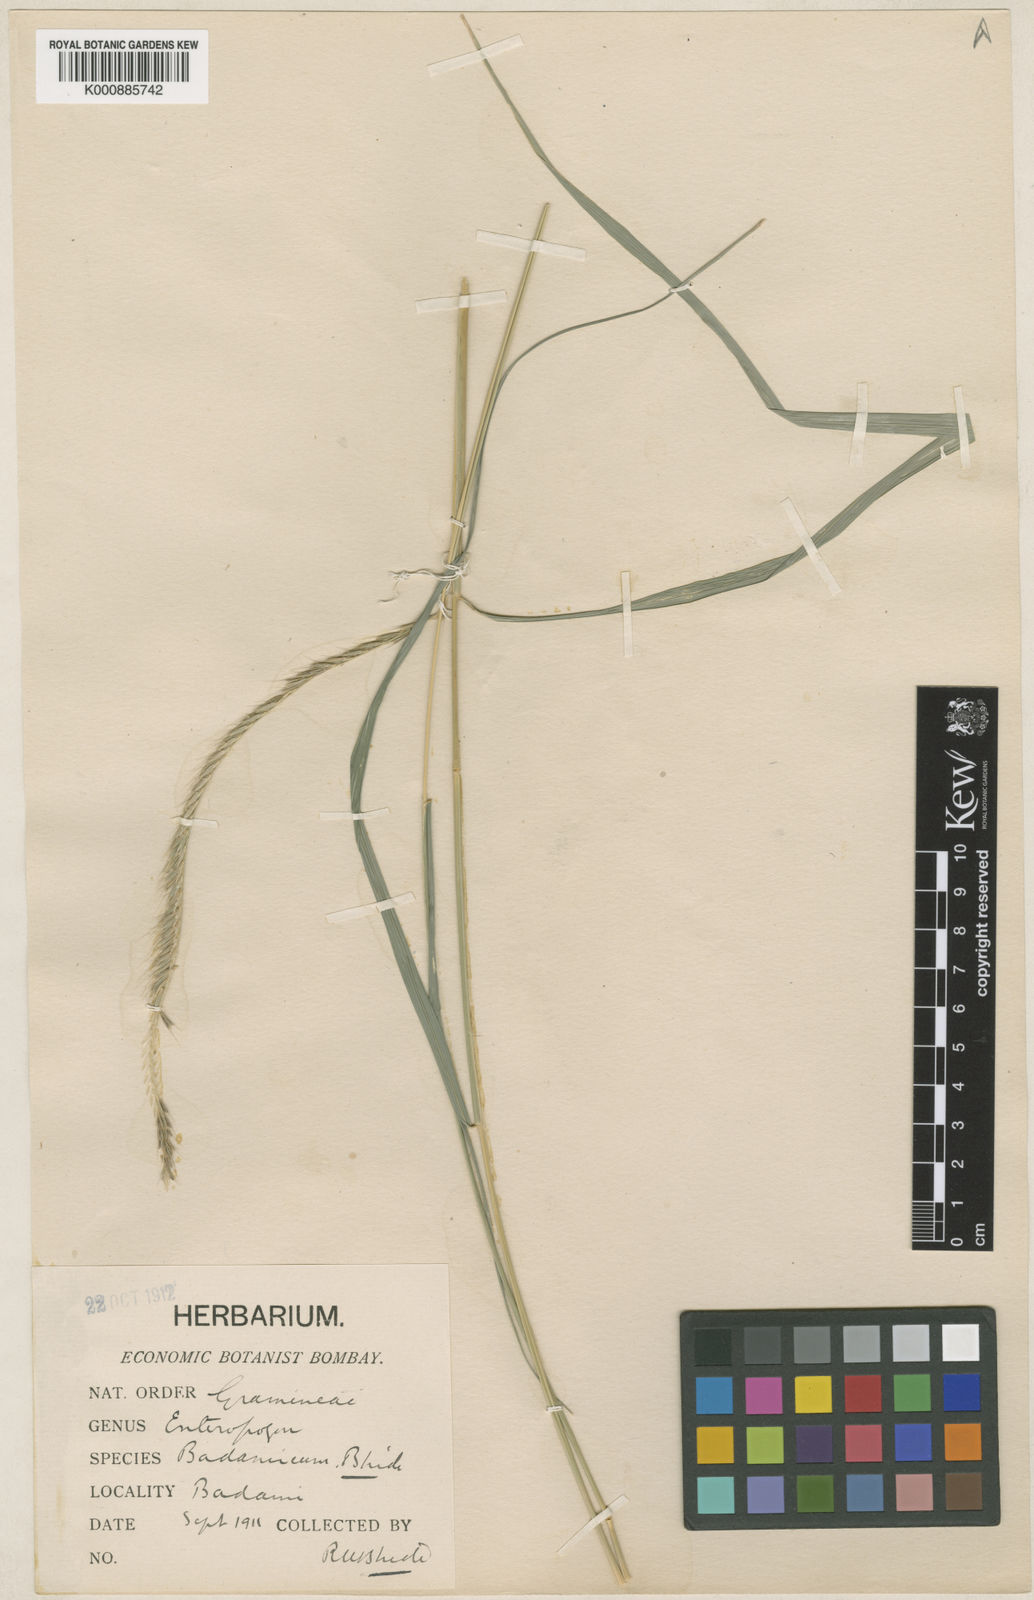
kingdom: Plantae
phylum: Tracheophyta
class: Liliopsida
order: Poales
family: Poaceae
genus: Enteropogon
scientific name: Enteropogon
